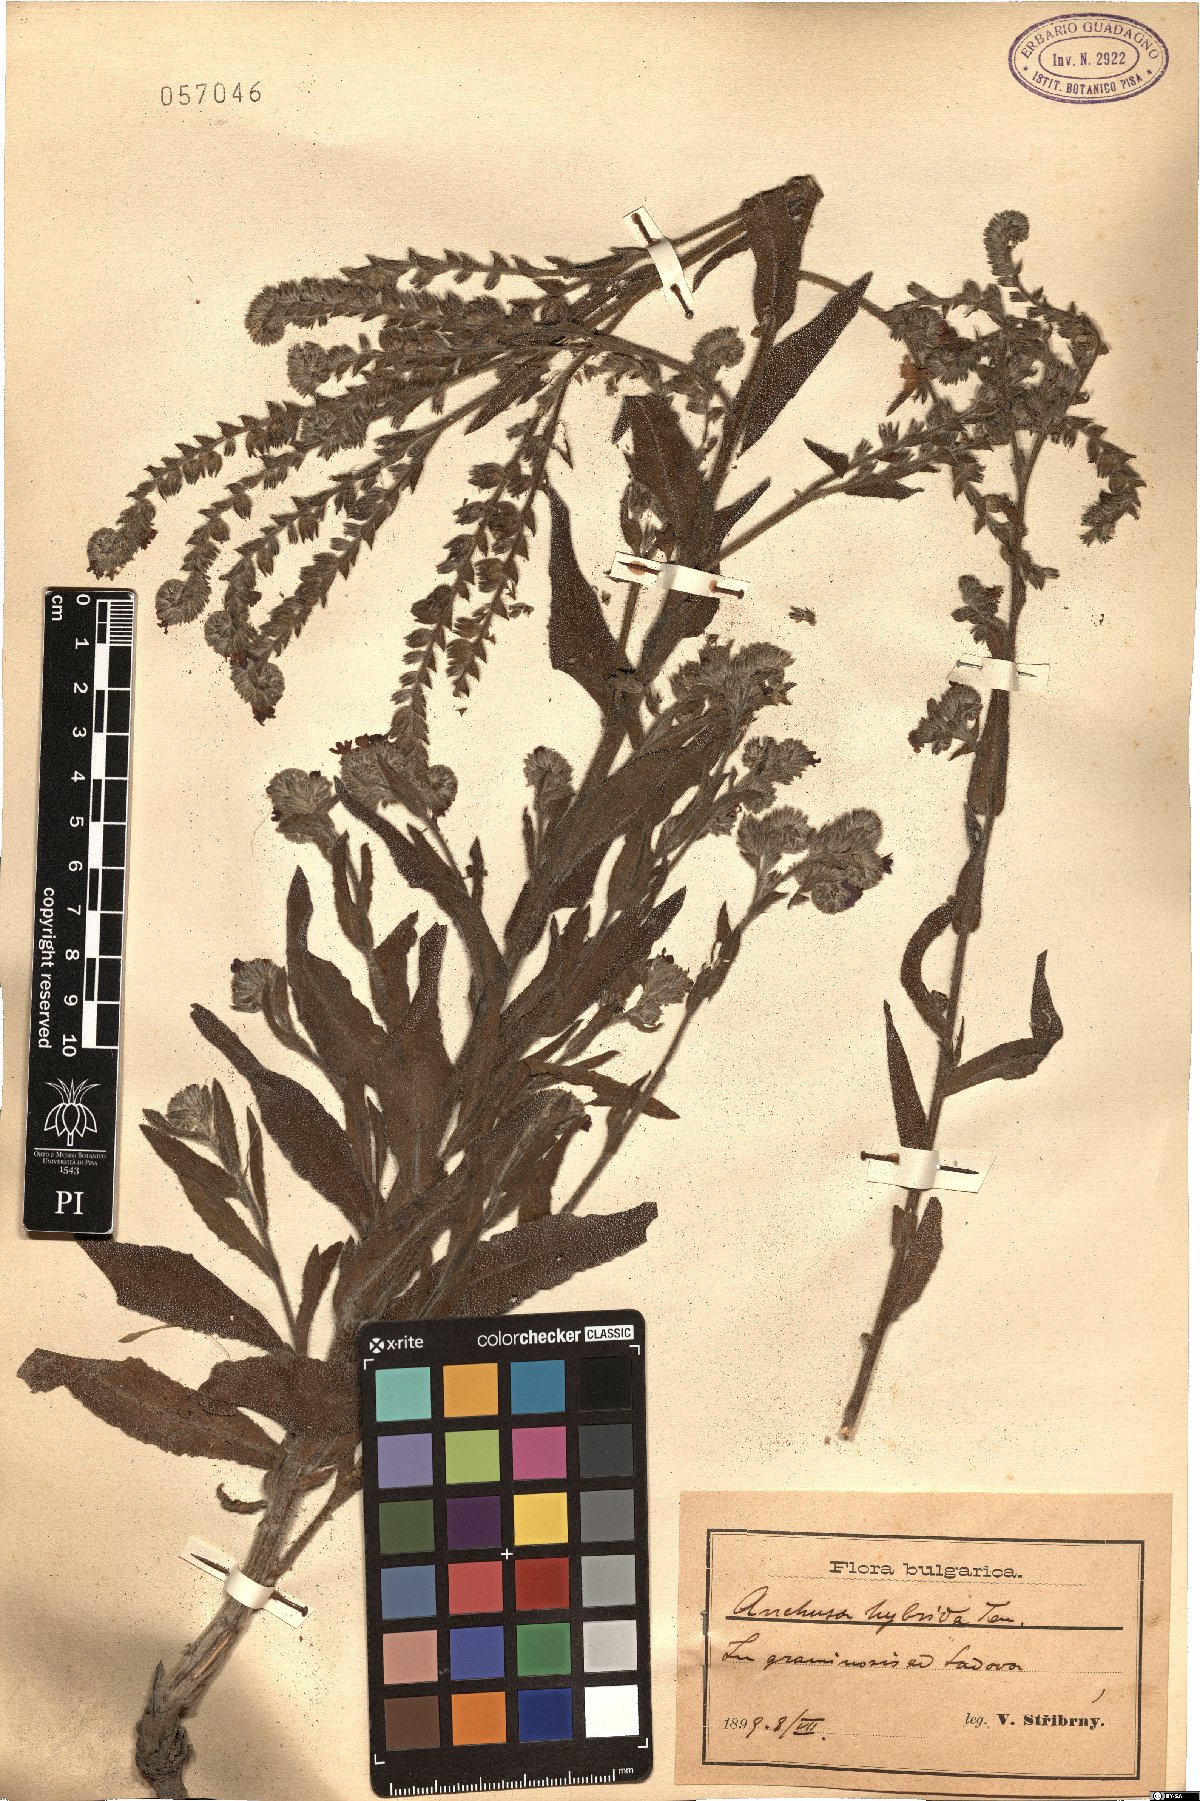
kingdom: Plantae
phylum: Tracheophyta
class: Magnoliopsida
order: Boraginales
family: Boraginaceae
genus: Anchusa
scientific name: Anchusa hybrida
